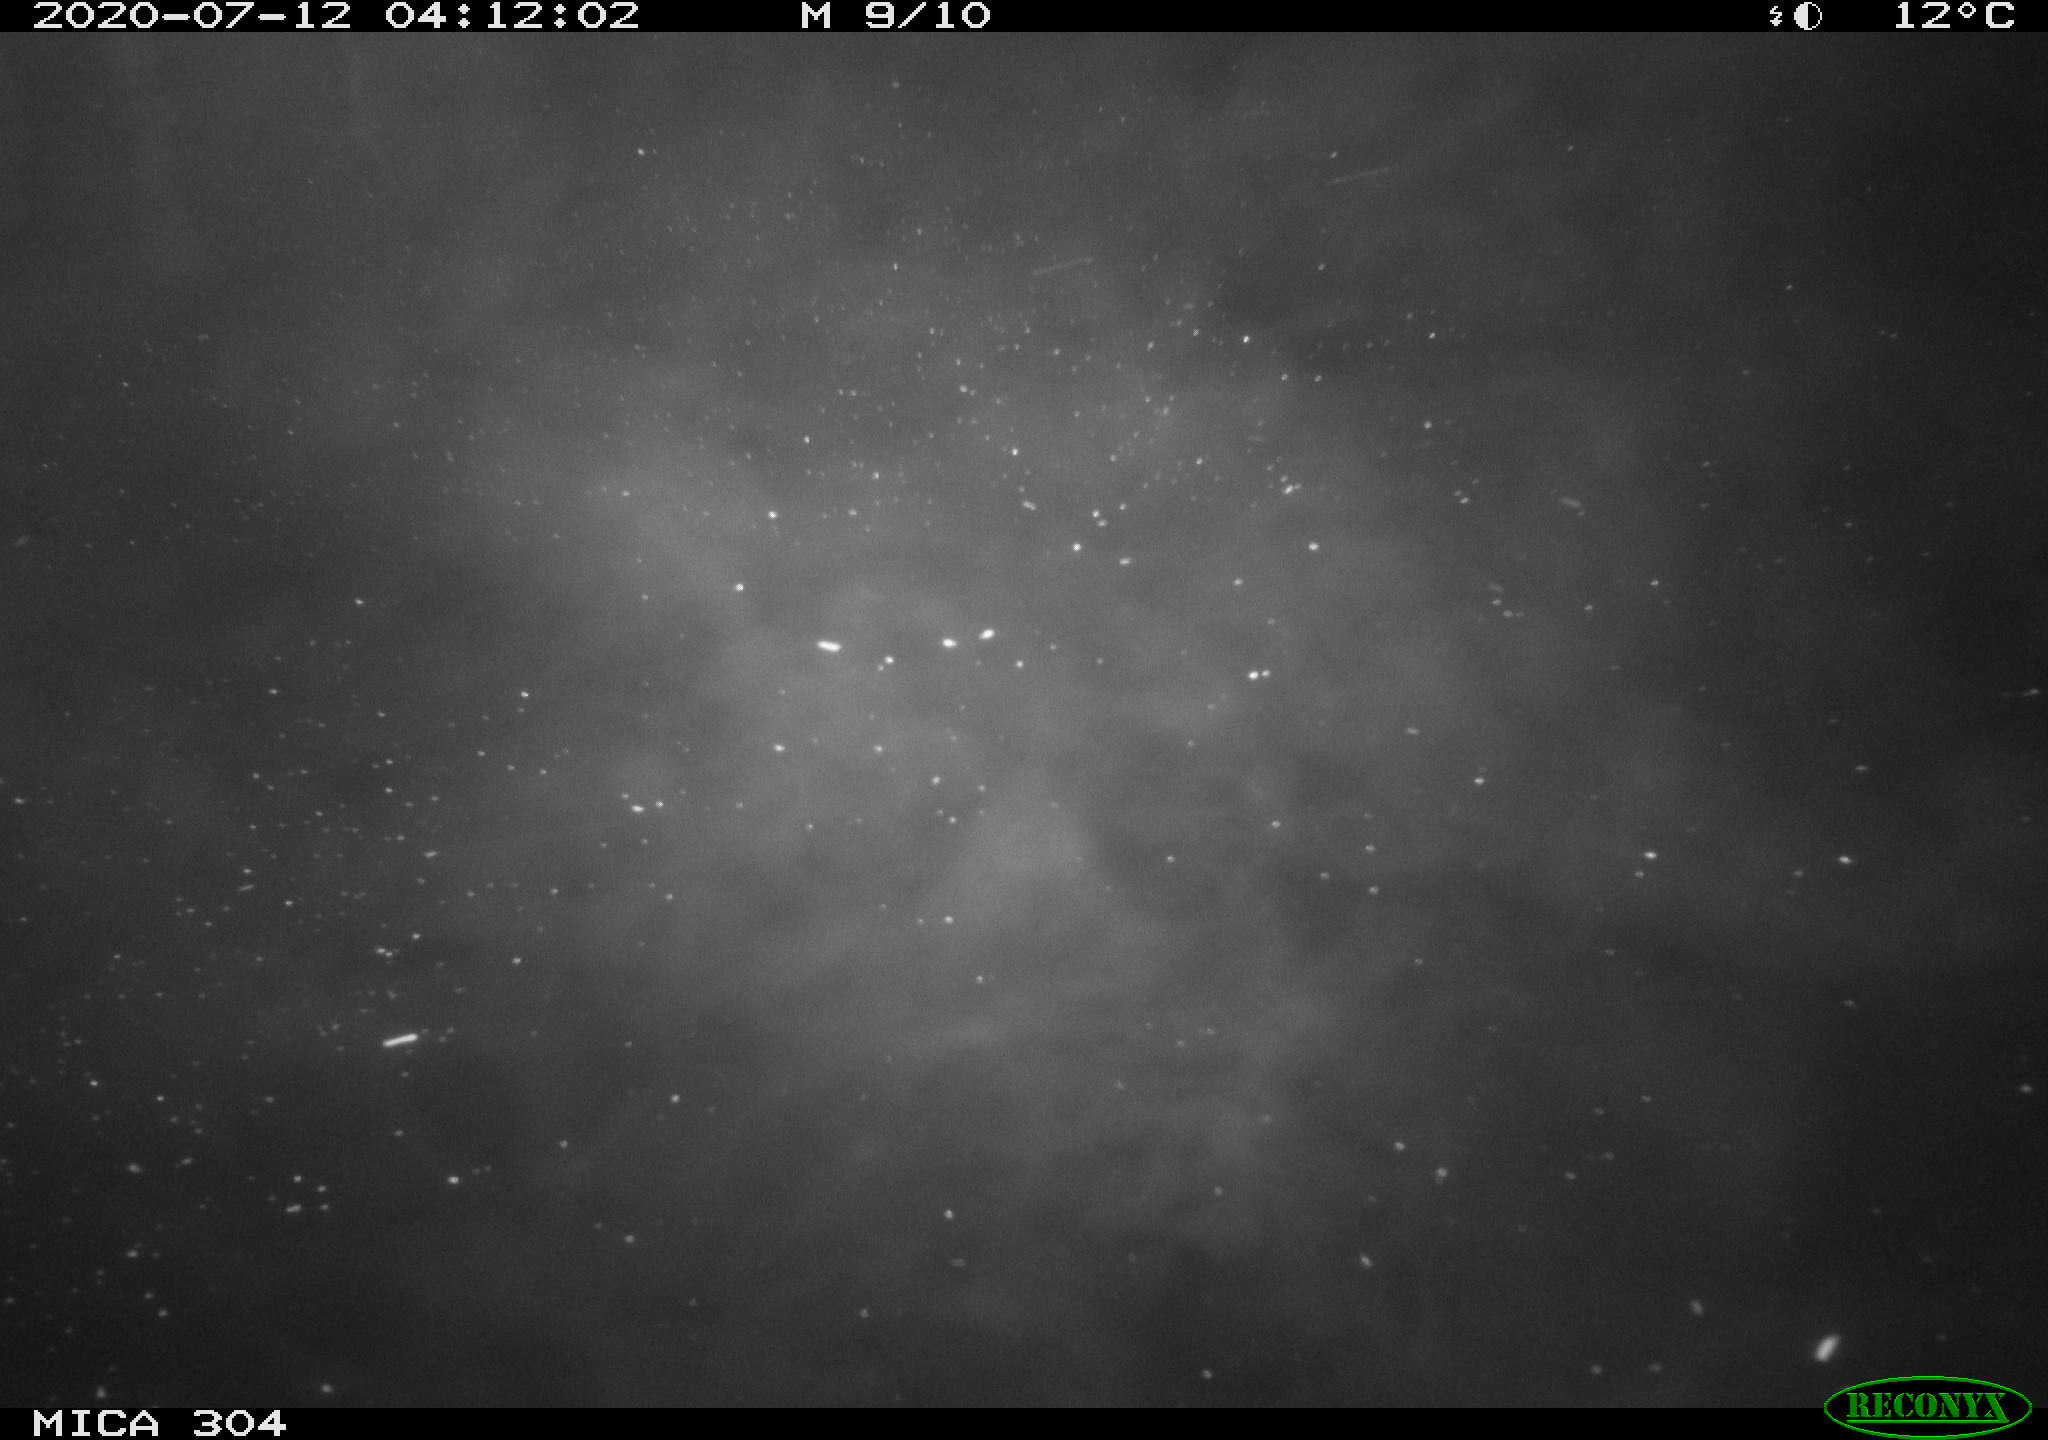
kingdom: Animalia
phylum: Chordata
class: Mammalia
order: Rodentia
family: Cricetidae
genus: Ondatra
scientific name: Ondatra zibethicus
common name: Muskrat
